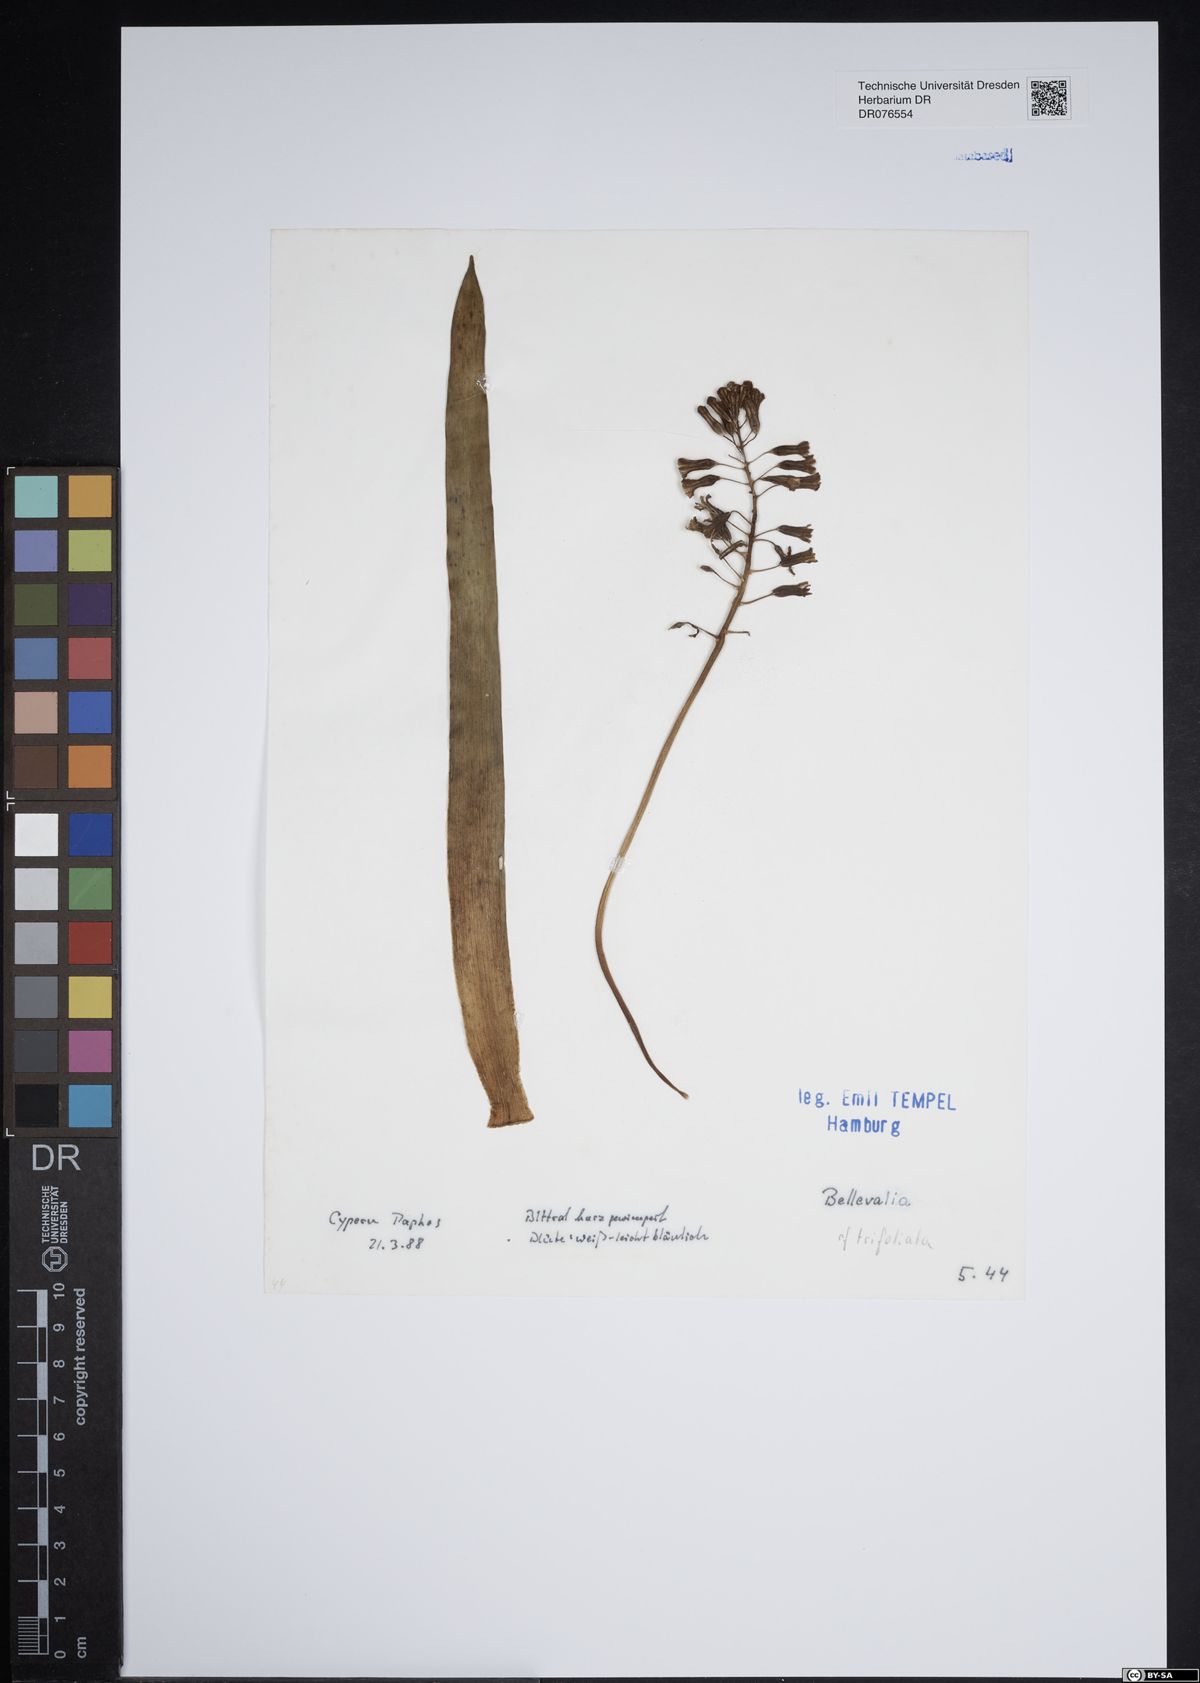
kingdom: Plantae
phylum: Tracheophyta
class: Liliopsida
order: Asparagales
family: Asparagaceae
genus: Bellevalia
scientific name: Bellevalia trifoliata
